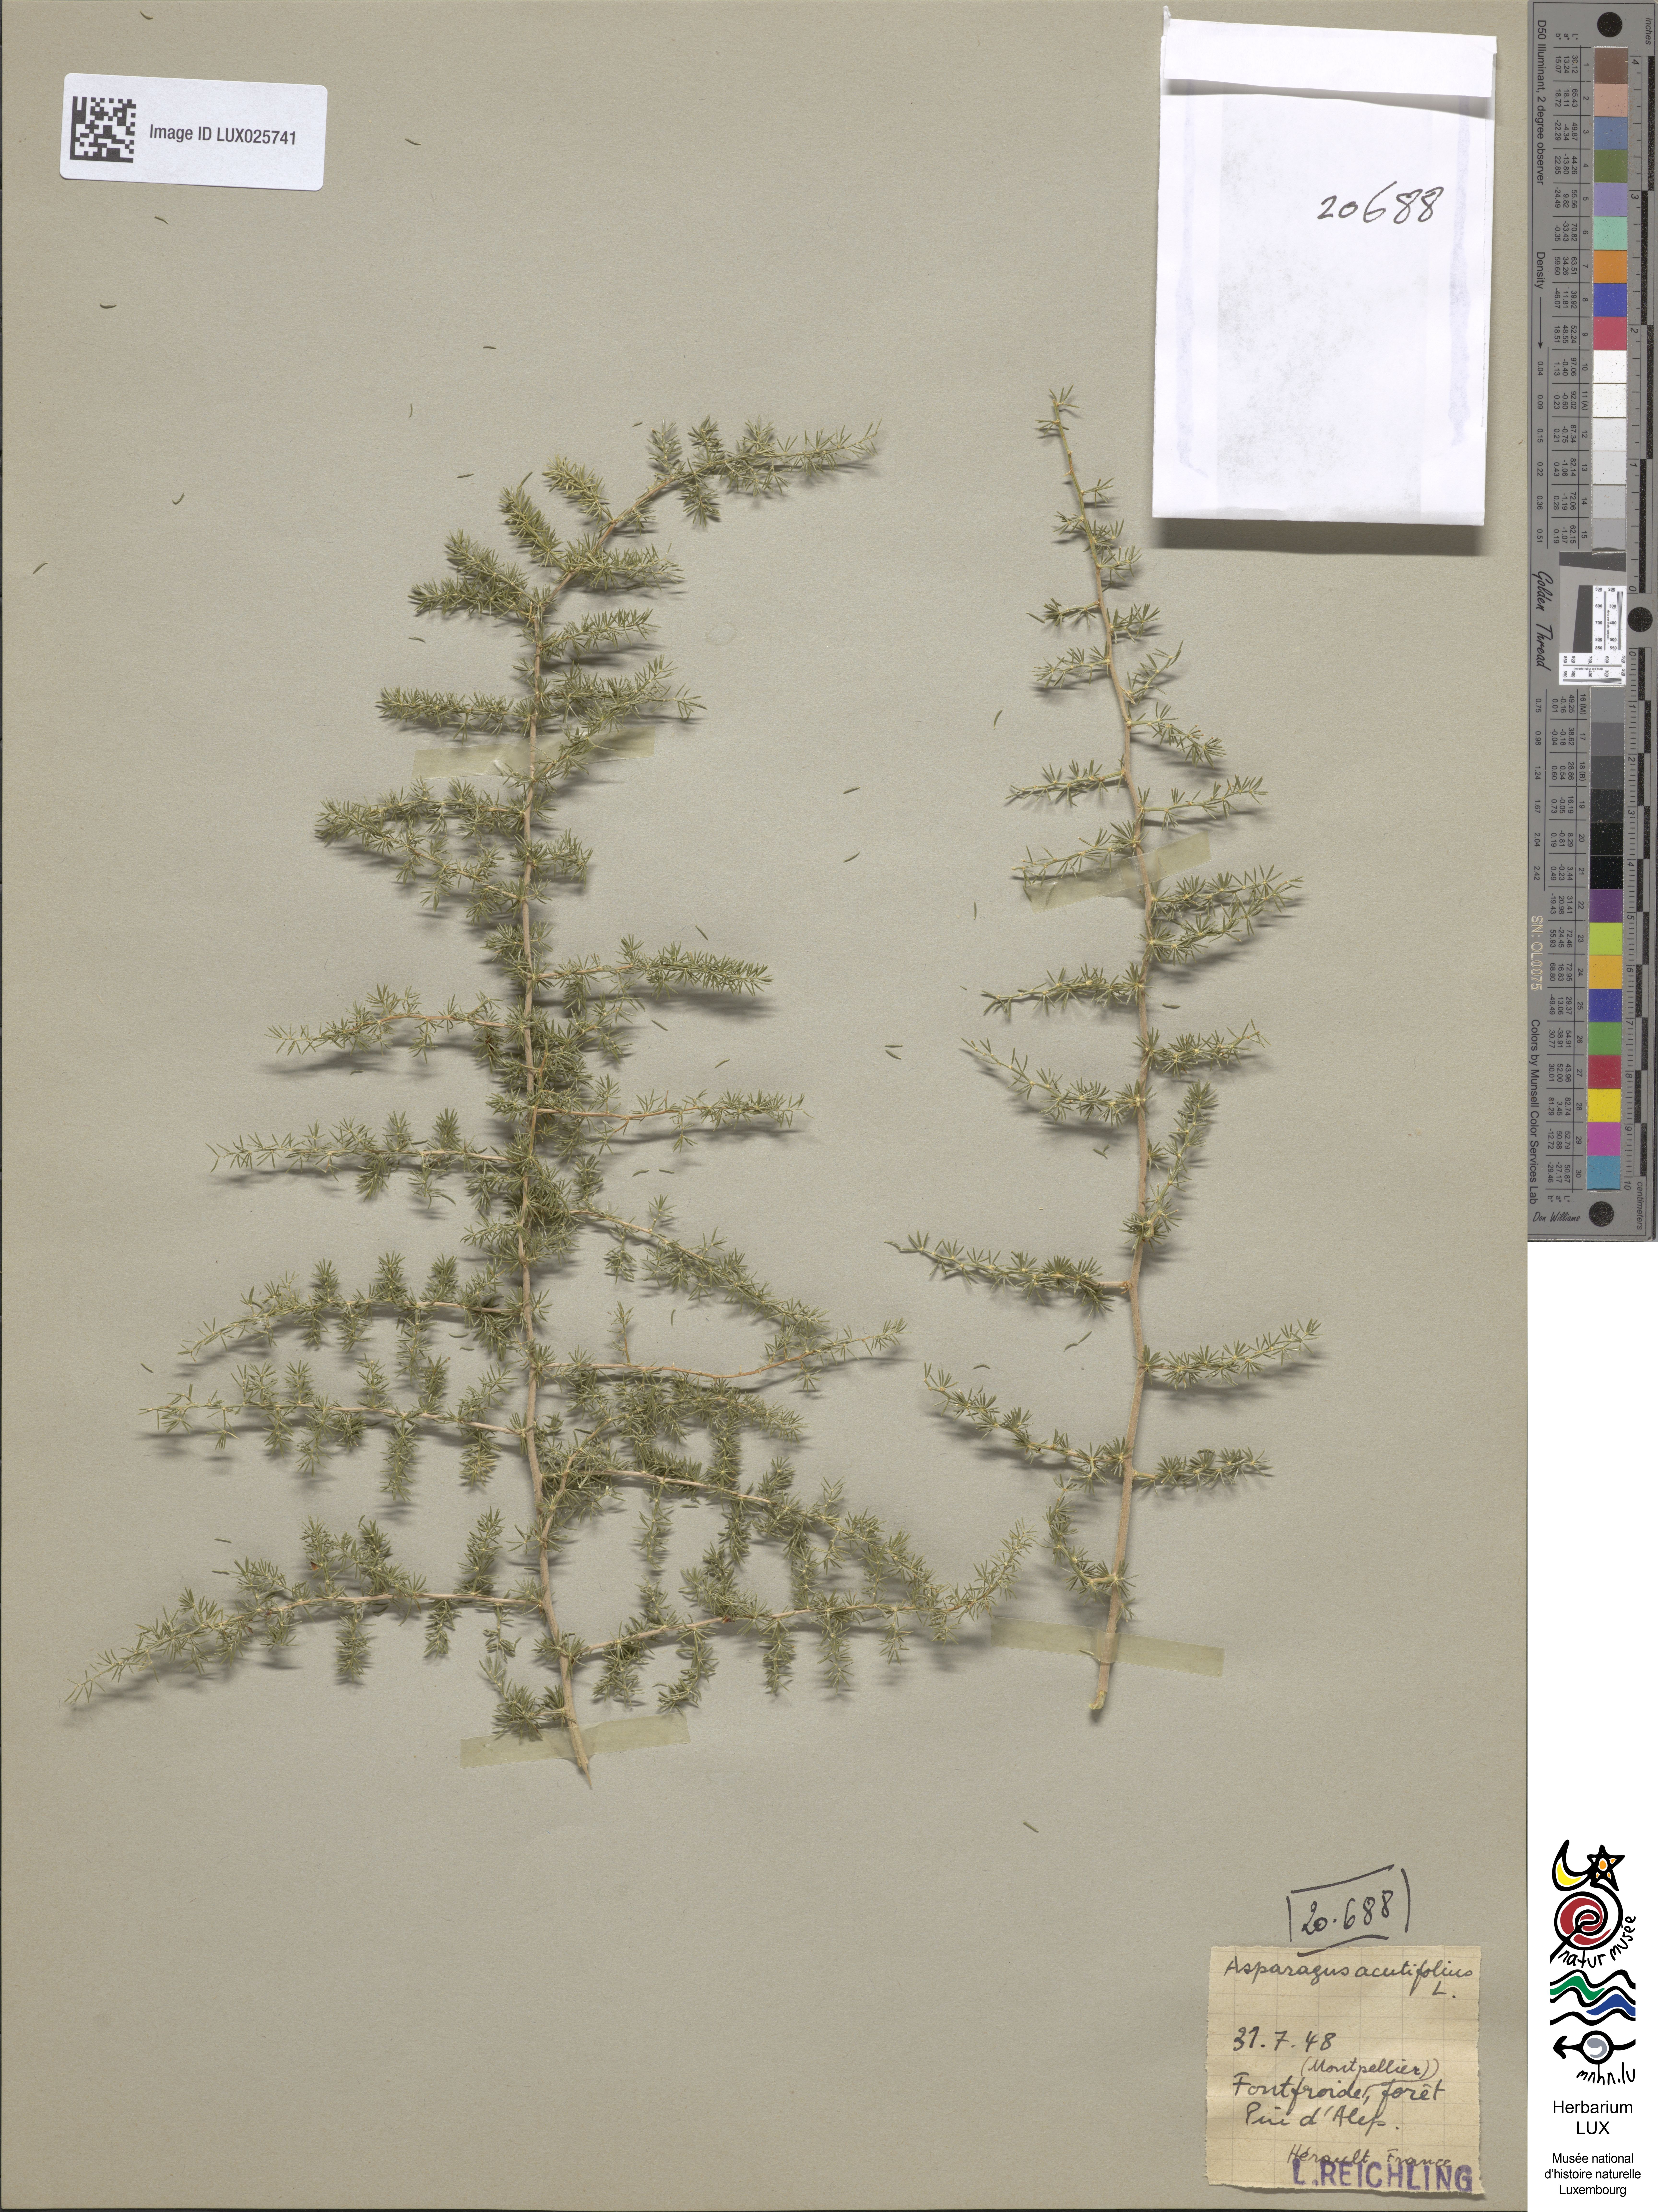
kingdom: Plantae
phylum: Tracheophyta
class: Liliopsida
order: Asparagales
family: Asparagaceae
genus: Asparagus
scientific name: Asparagus acutifolius
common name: Wild asparagus
